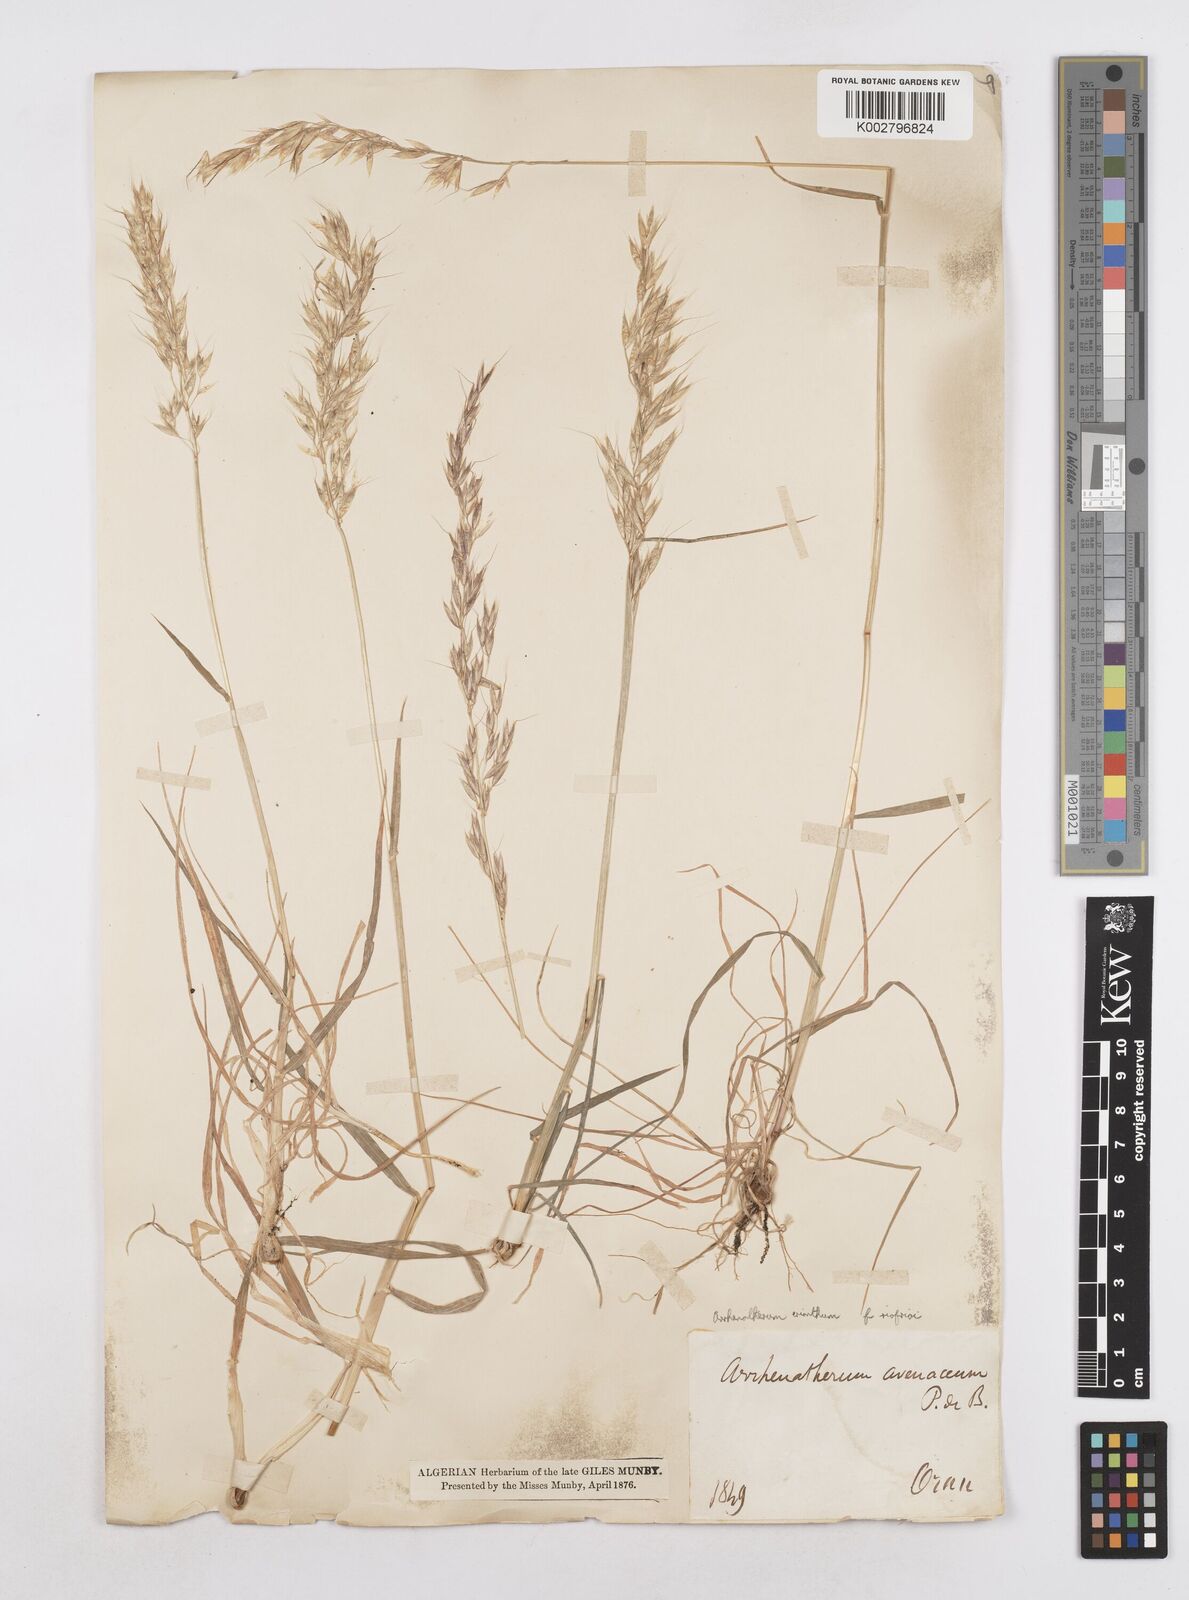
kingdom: Plantae
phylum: Tracheophyta
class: Liliopsida
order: Poales
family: Poaceae
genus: Arrhenatherum
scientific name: Arrhenatherum
